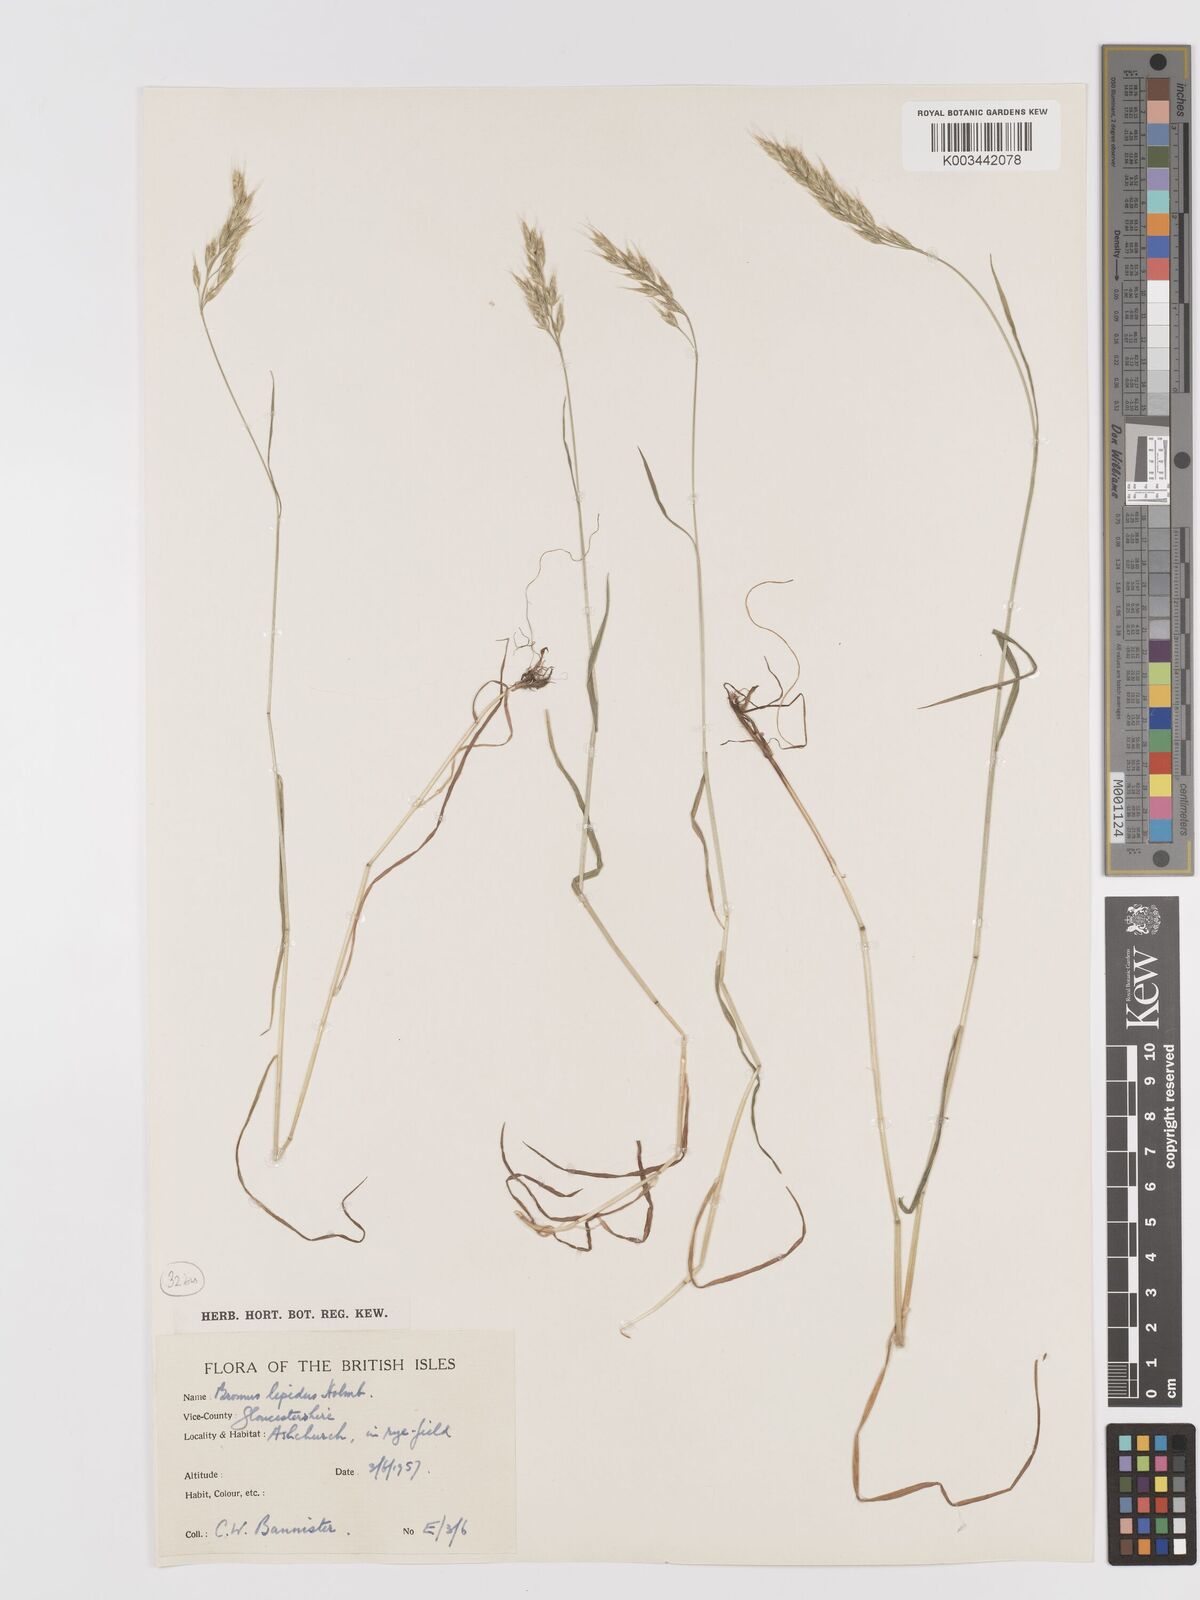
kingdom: Plantae
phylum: Tracheophyta
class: Liliopsida
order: Poales
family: Poaceae
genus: Bromus
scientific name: Bromus lepidus
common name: Slender soft-brome
